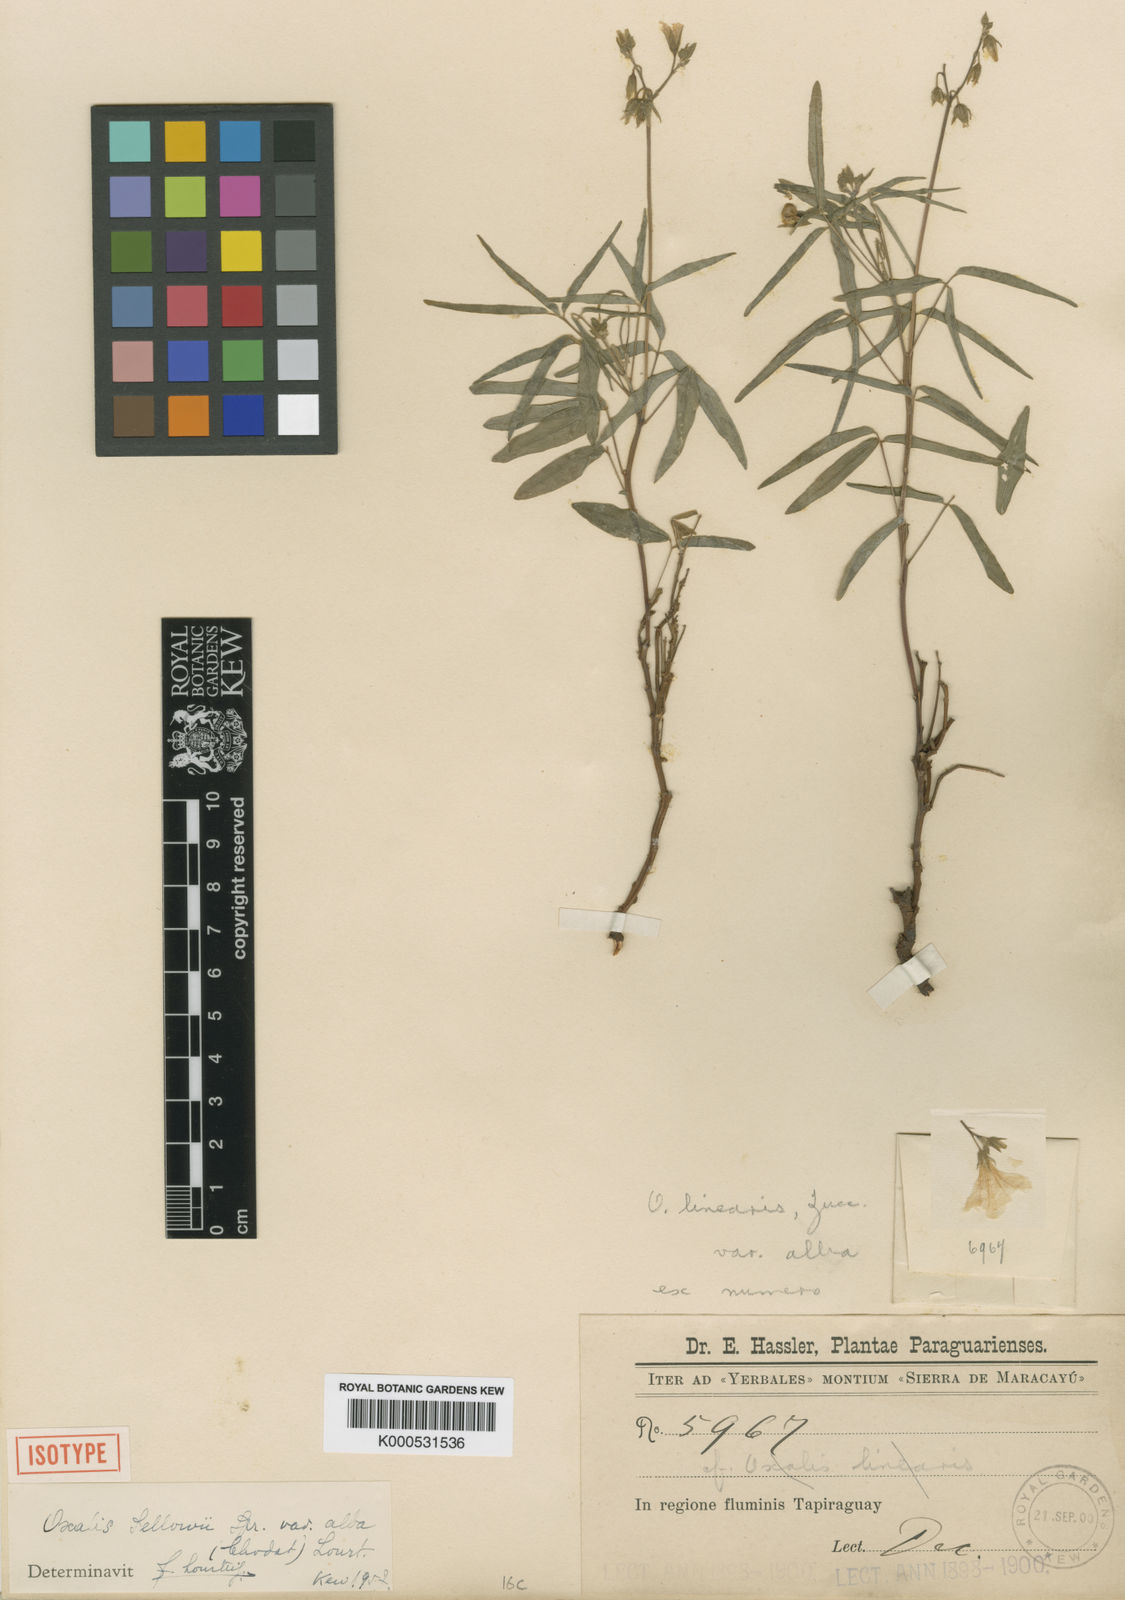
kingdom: Plantae
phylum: Tracheophyta
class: Magnoliopsida
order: Oxalidales
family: Oxalidaceae
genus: Oxalis
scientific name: Oxalis sellowii
